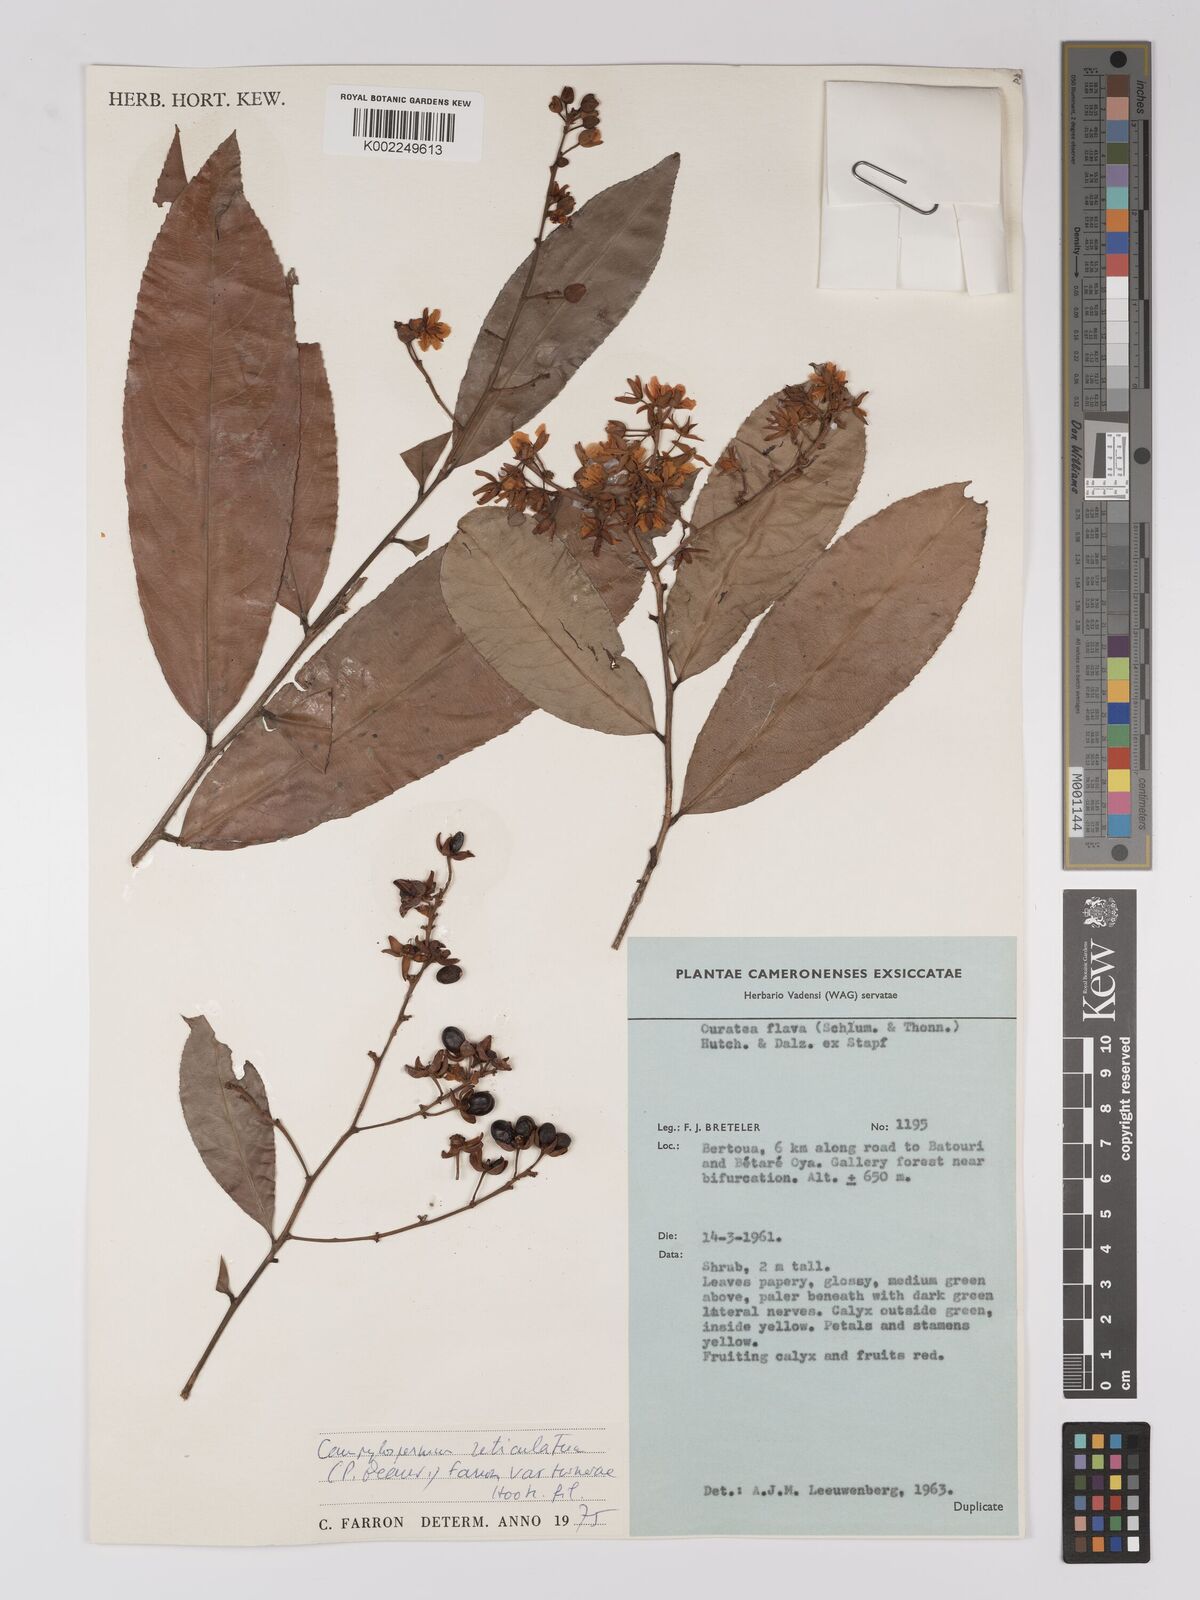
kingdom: Plantae
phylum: Tracheophyta
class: Magnoliopsida
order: Malpighiales
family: Ochnaceae
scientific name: Ochnaceae
